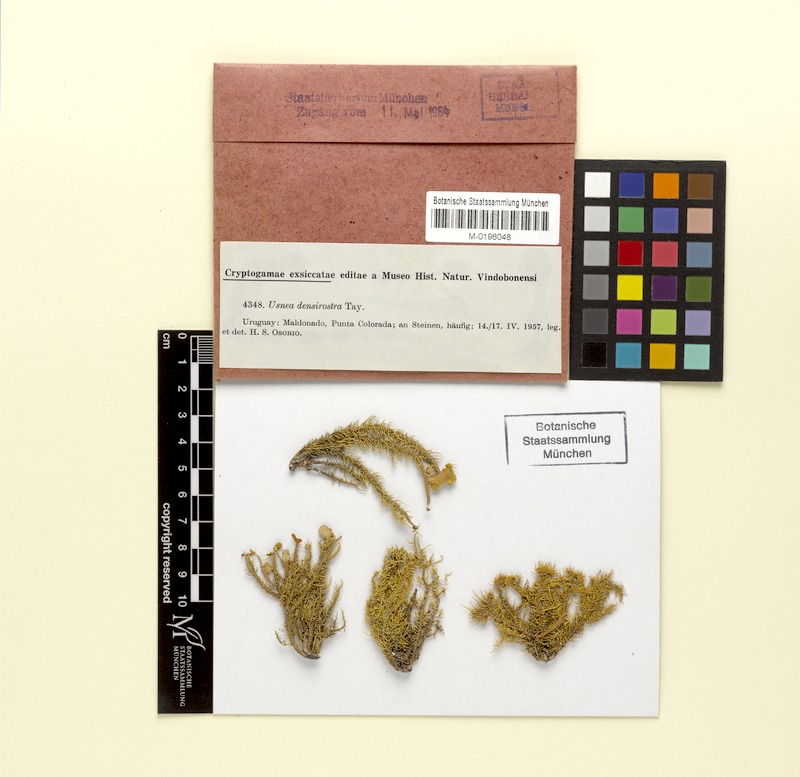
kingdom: Fungi
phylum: Ascomycota
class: Lecanoromycetes
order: Lecanorales
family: Parmeliaceae
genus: Usnea
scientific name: Usnea densirostra
